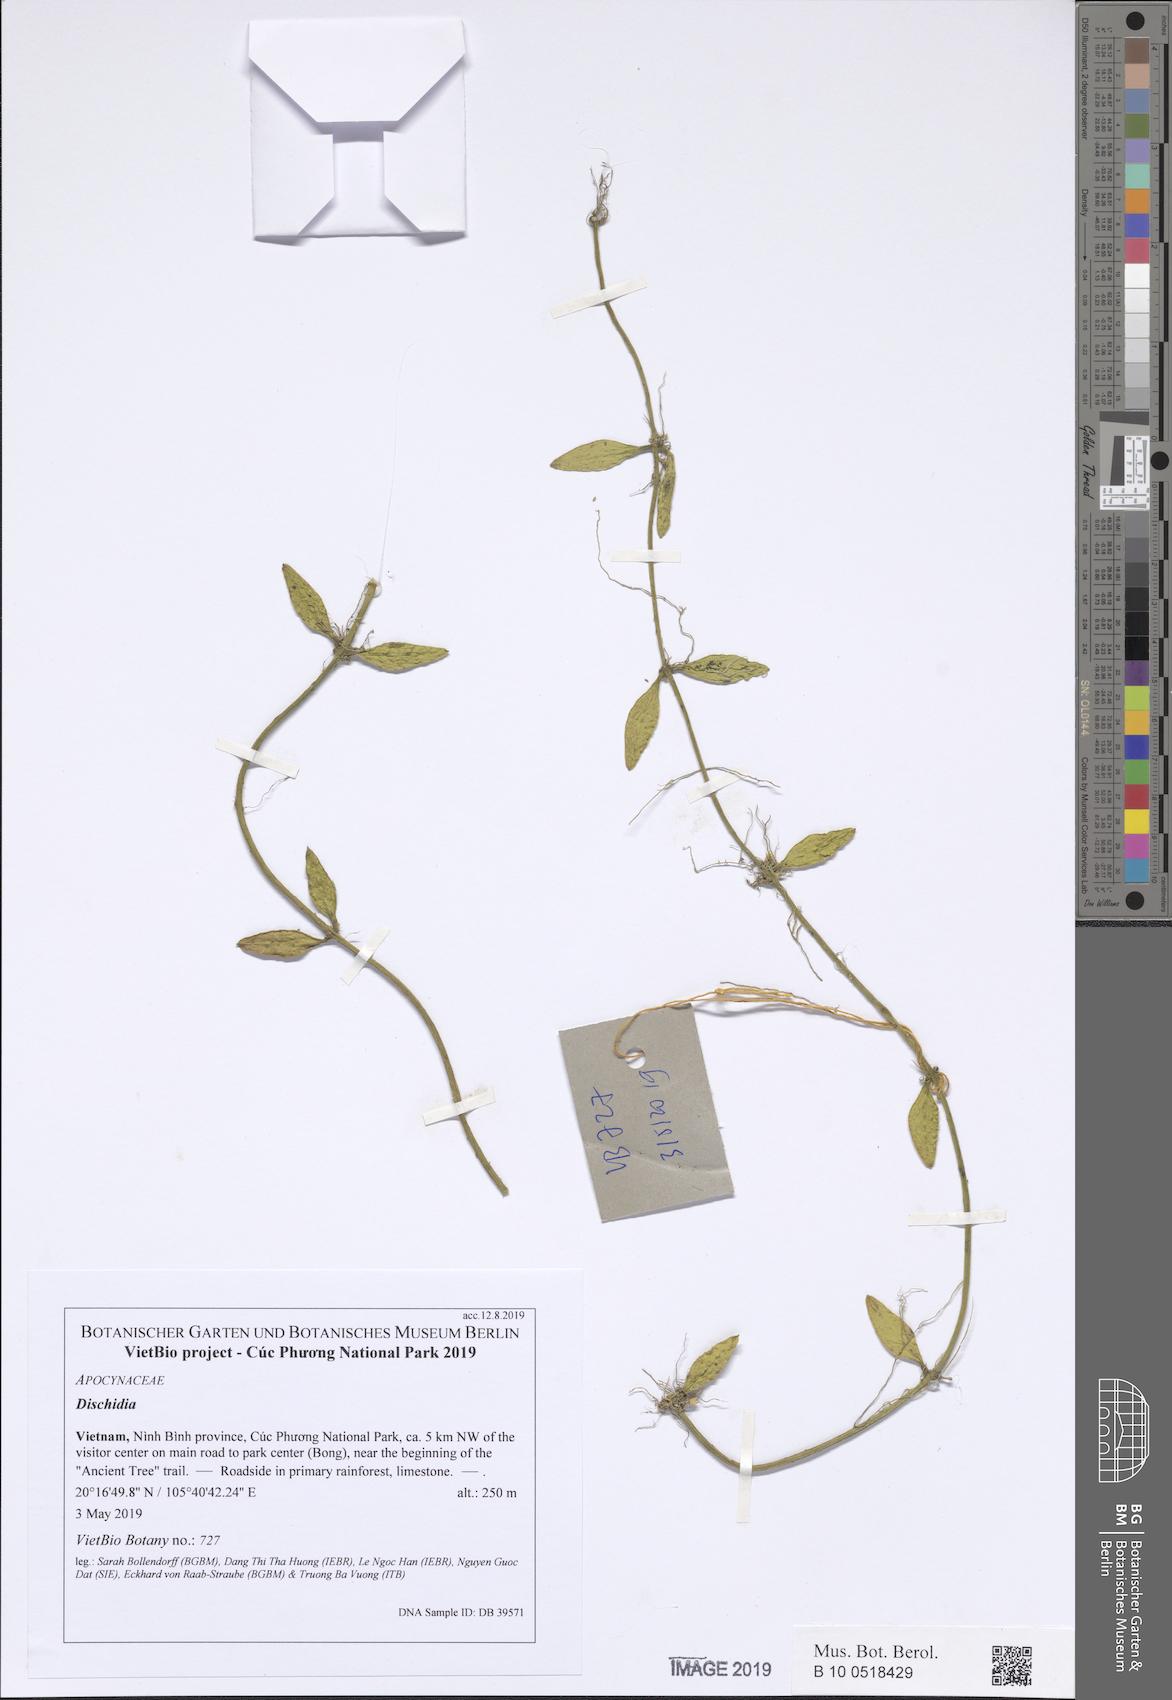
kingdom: Plantae
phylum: Tracheophyta
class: Magnoliopsida
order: Gentianales
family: Apocynaceae
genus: Dischidia
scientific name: Dischidia tonkinensis
